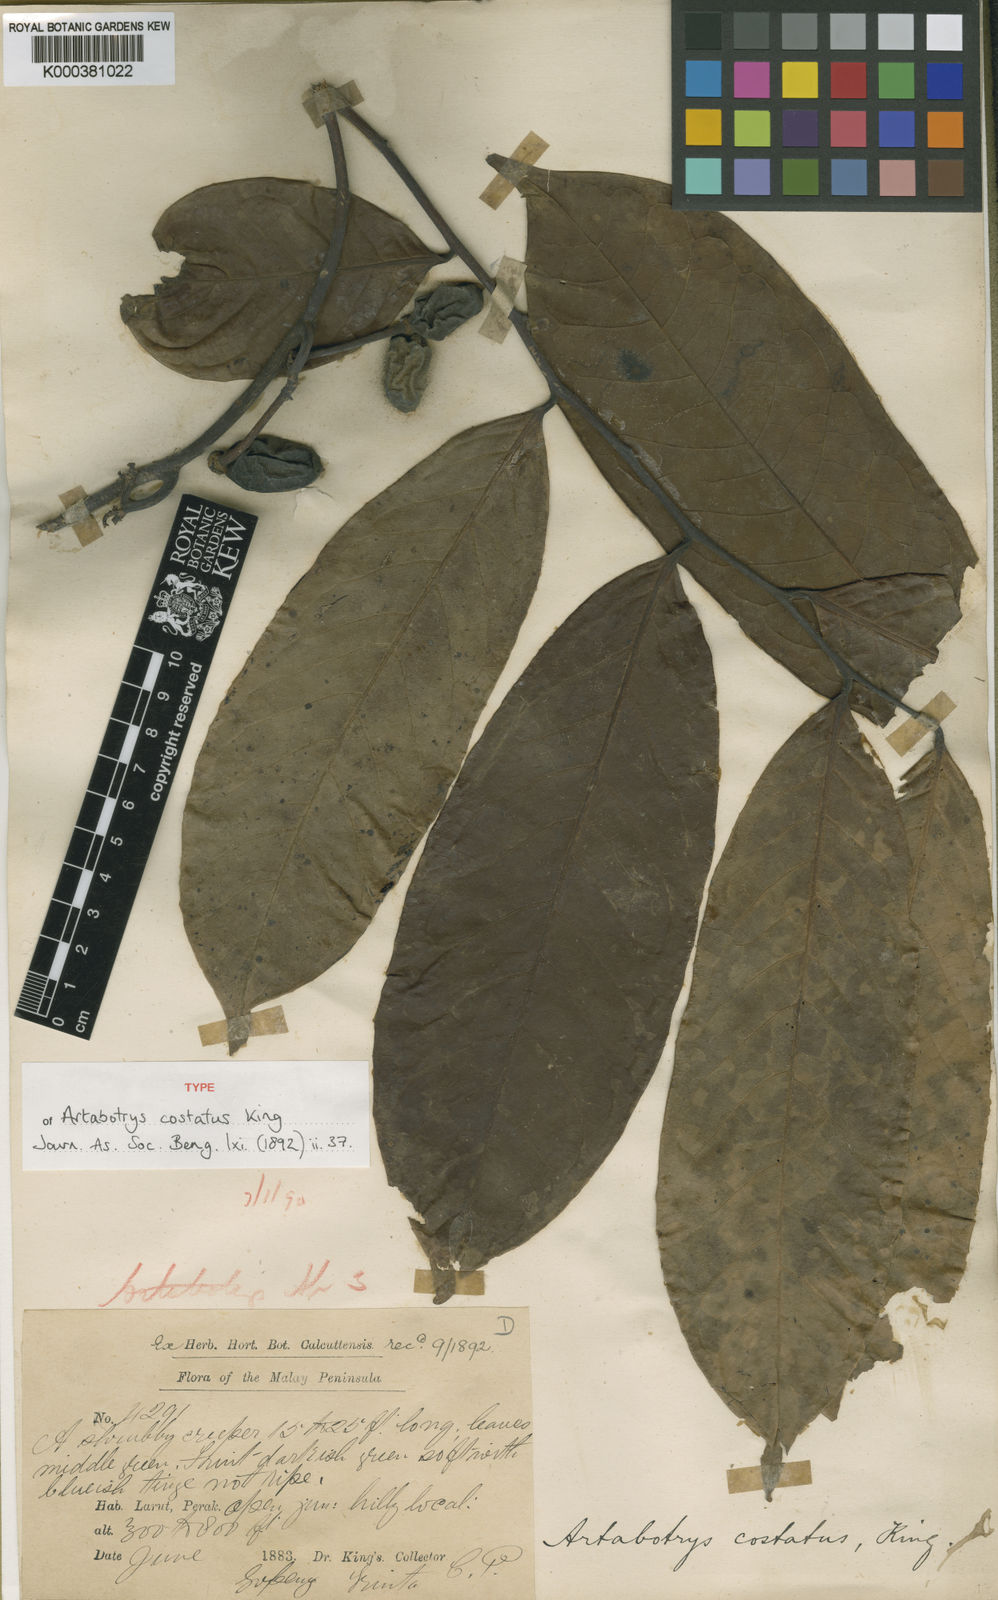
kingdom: Plantae
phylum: Tracheophyta
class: Magnoliopsida
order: Magnoliales
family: Annonaceae
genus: Artabotrys
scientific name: Artabotrys costatus
